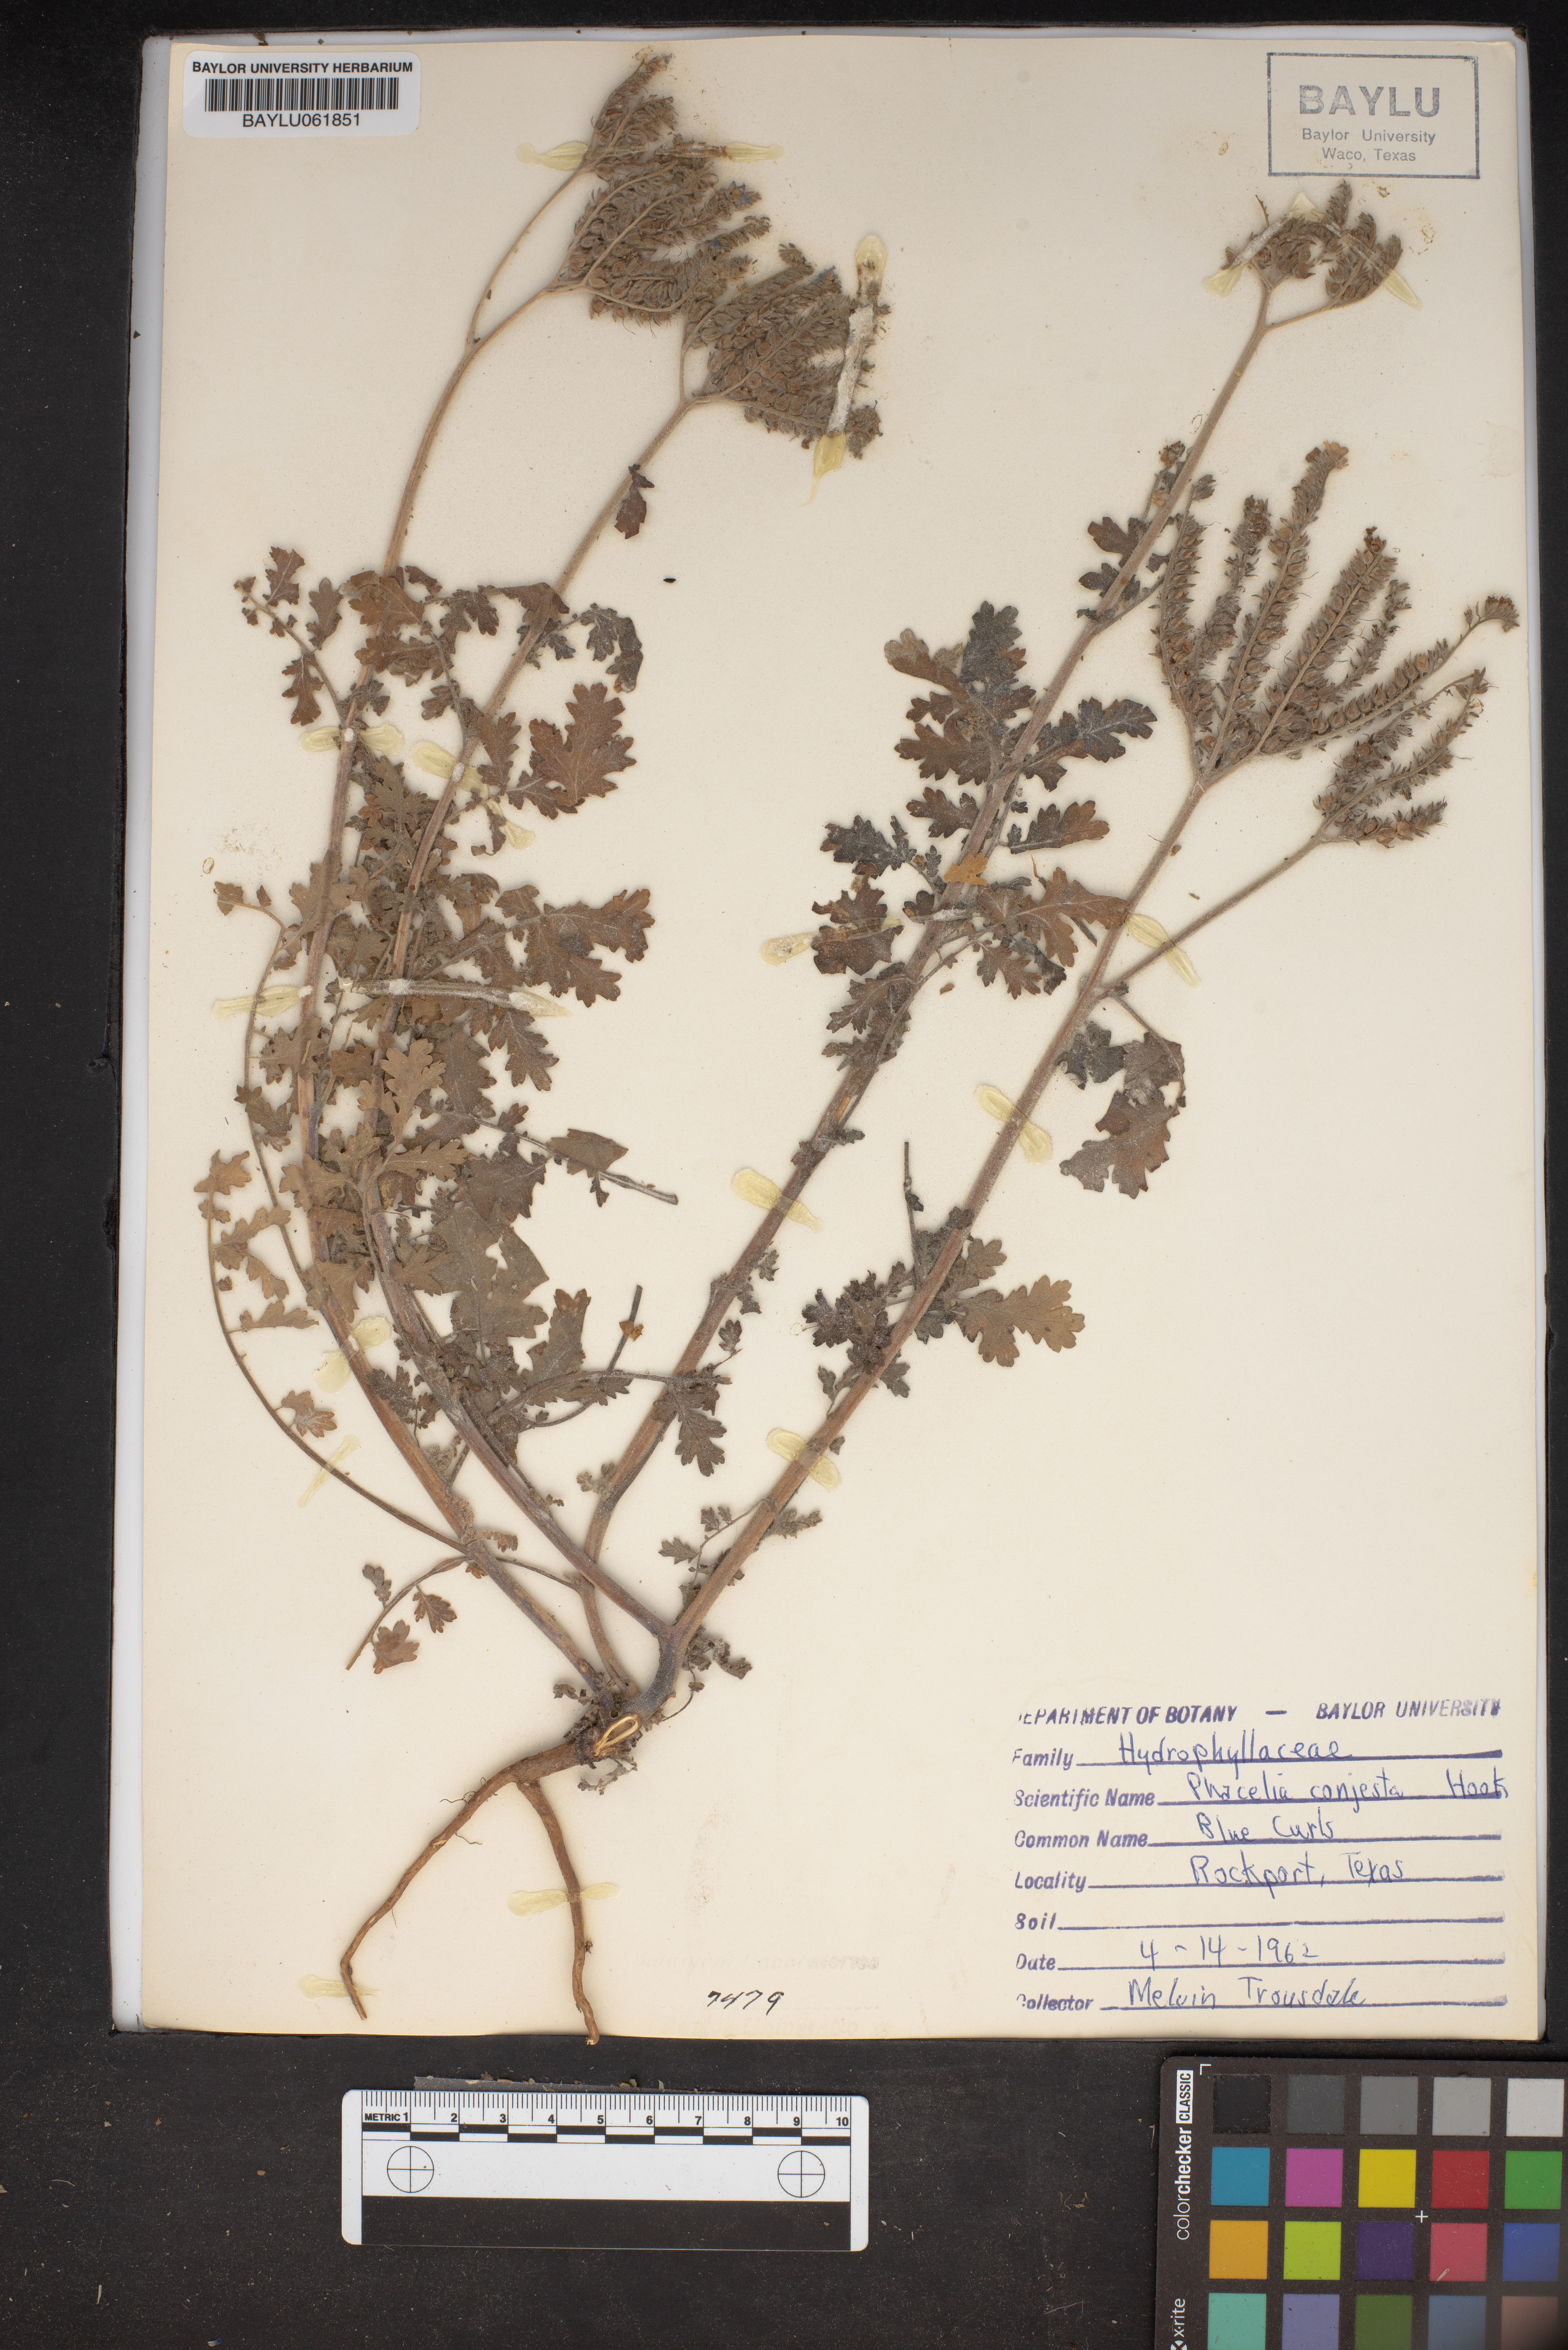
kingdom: Plantae
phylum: Tracheophyta
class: Magnoliopsida
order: Boraginales
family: Hydrophyllaceae
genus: Phacelia
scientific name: Phacelia congesta
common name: Blue curls
